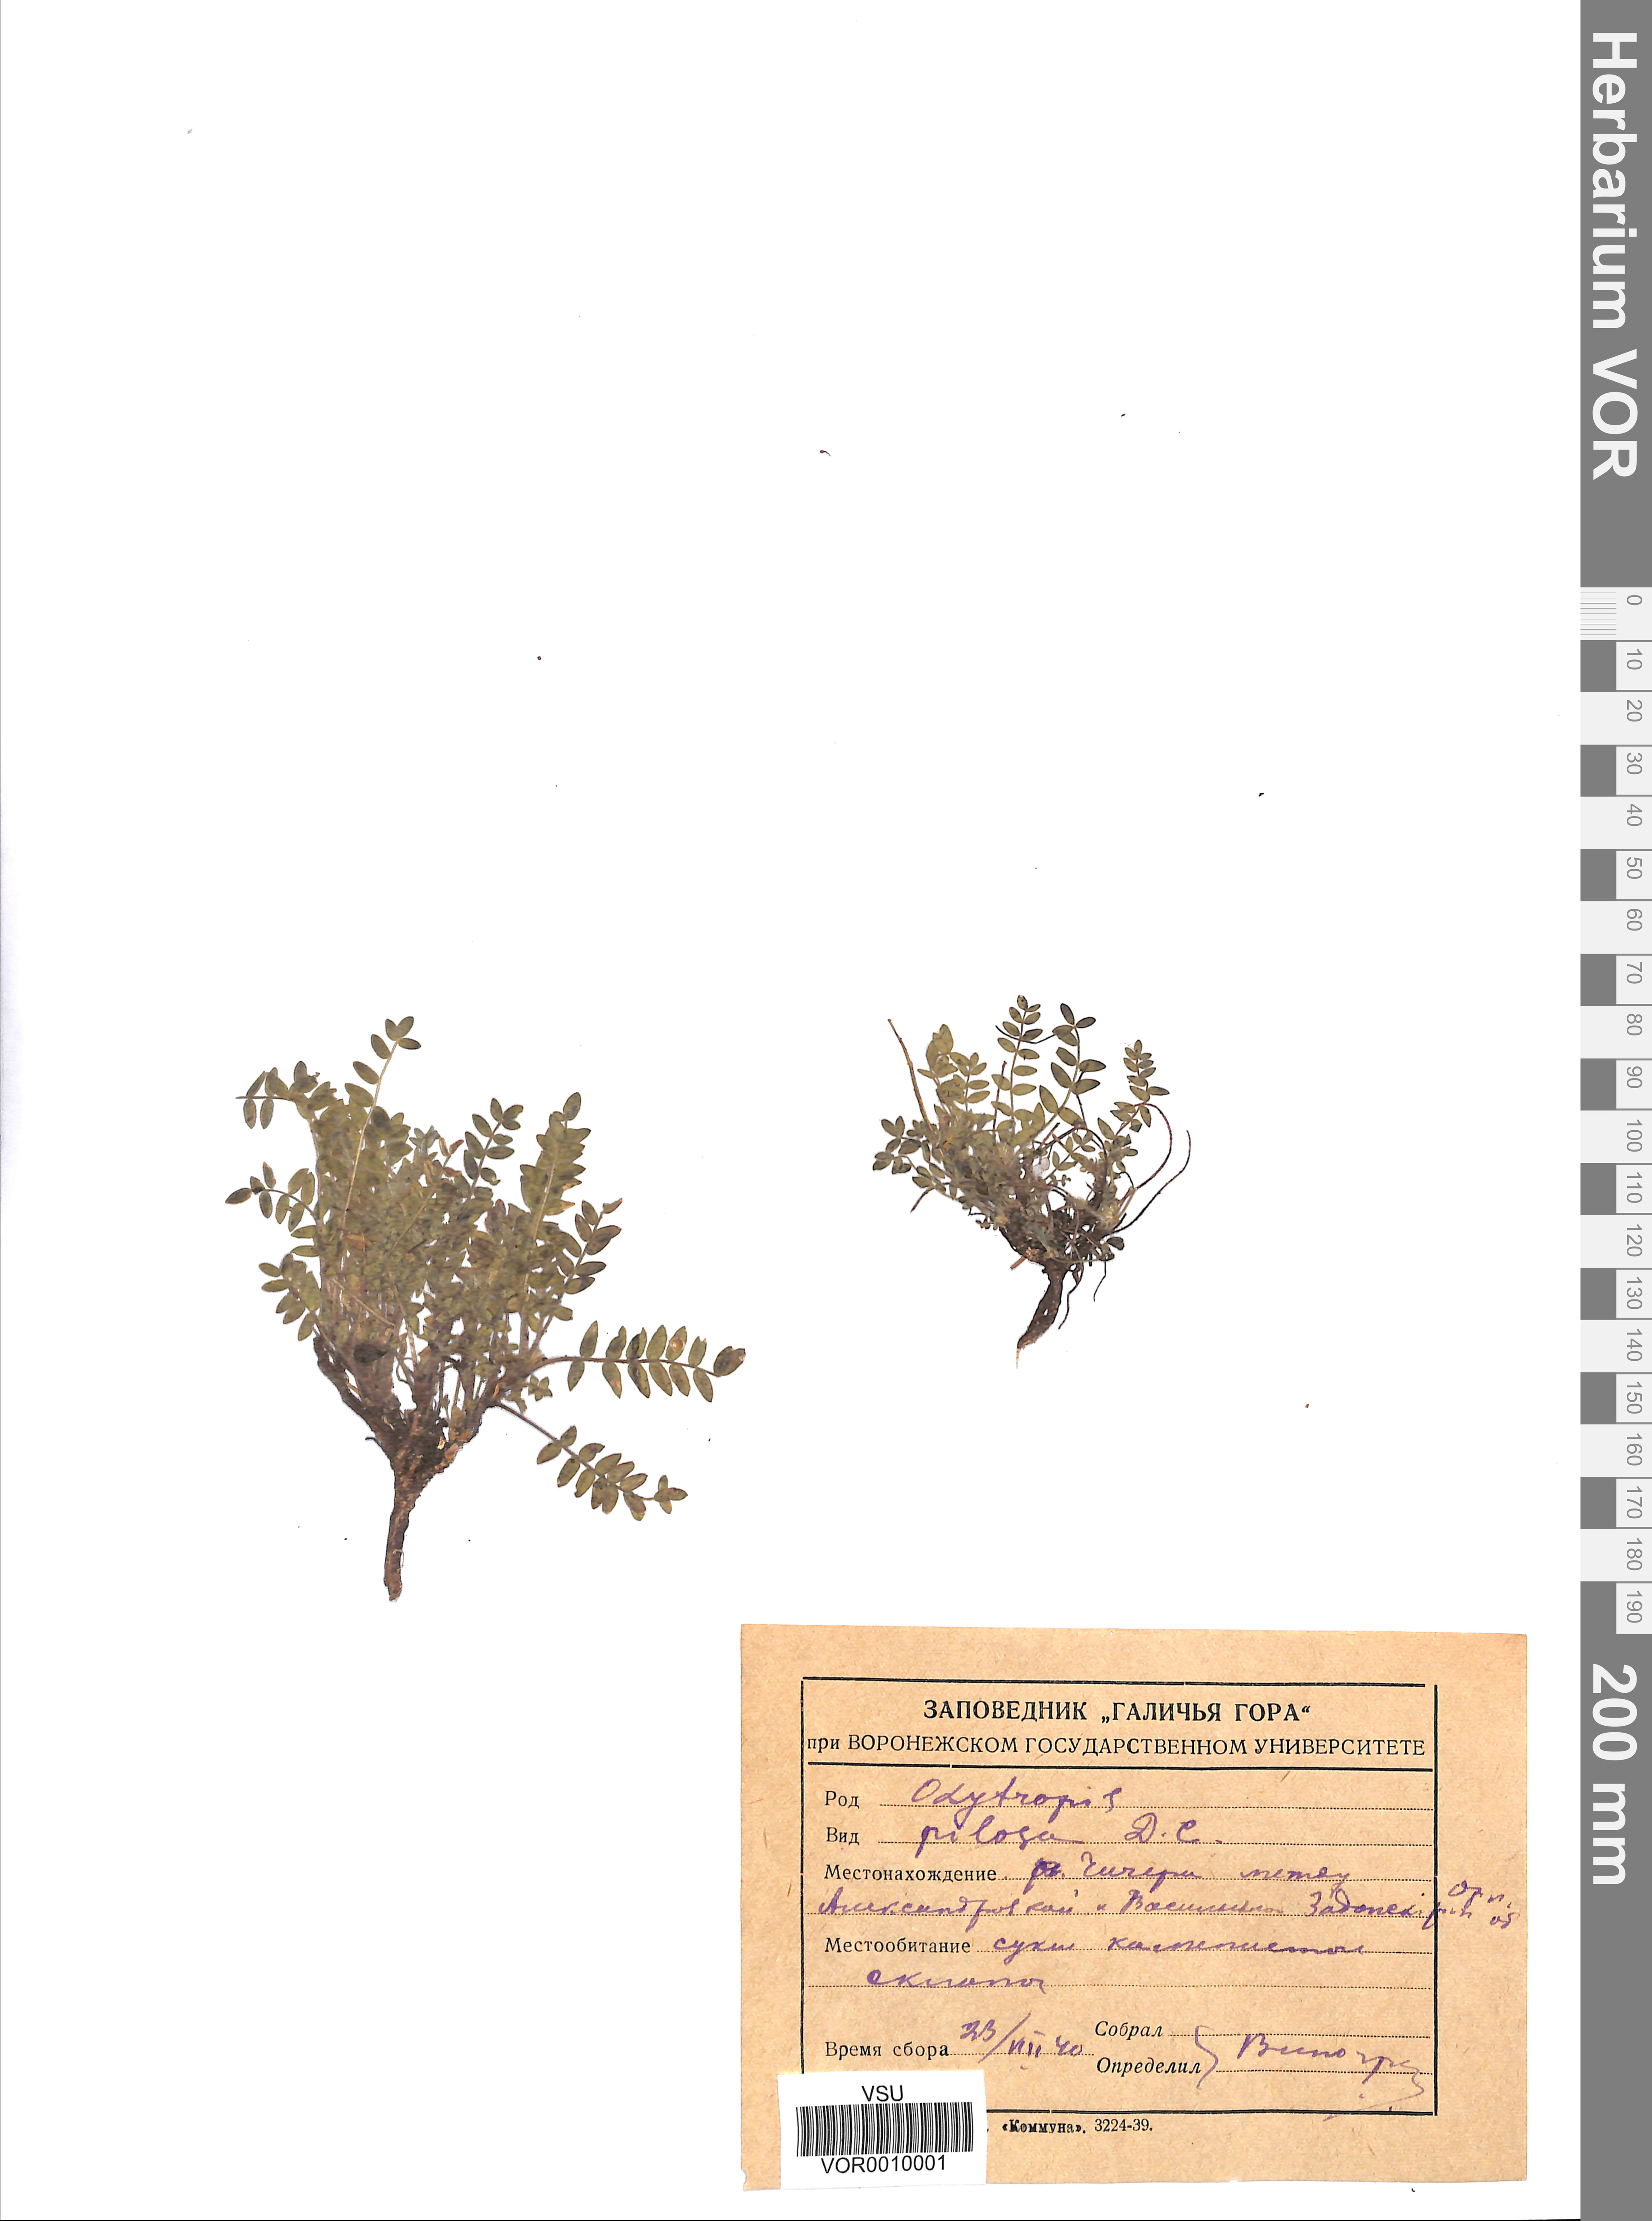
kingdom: Plantae
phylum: Tracheophyta
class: Magnoliopsida
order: Fabales
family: Fabaceae
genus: Oxytropis
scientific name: Oxytropis pilosa
